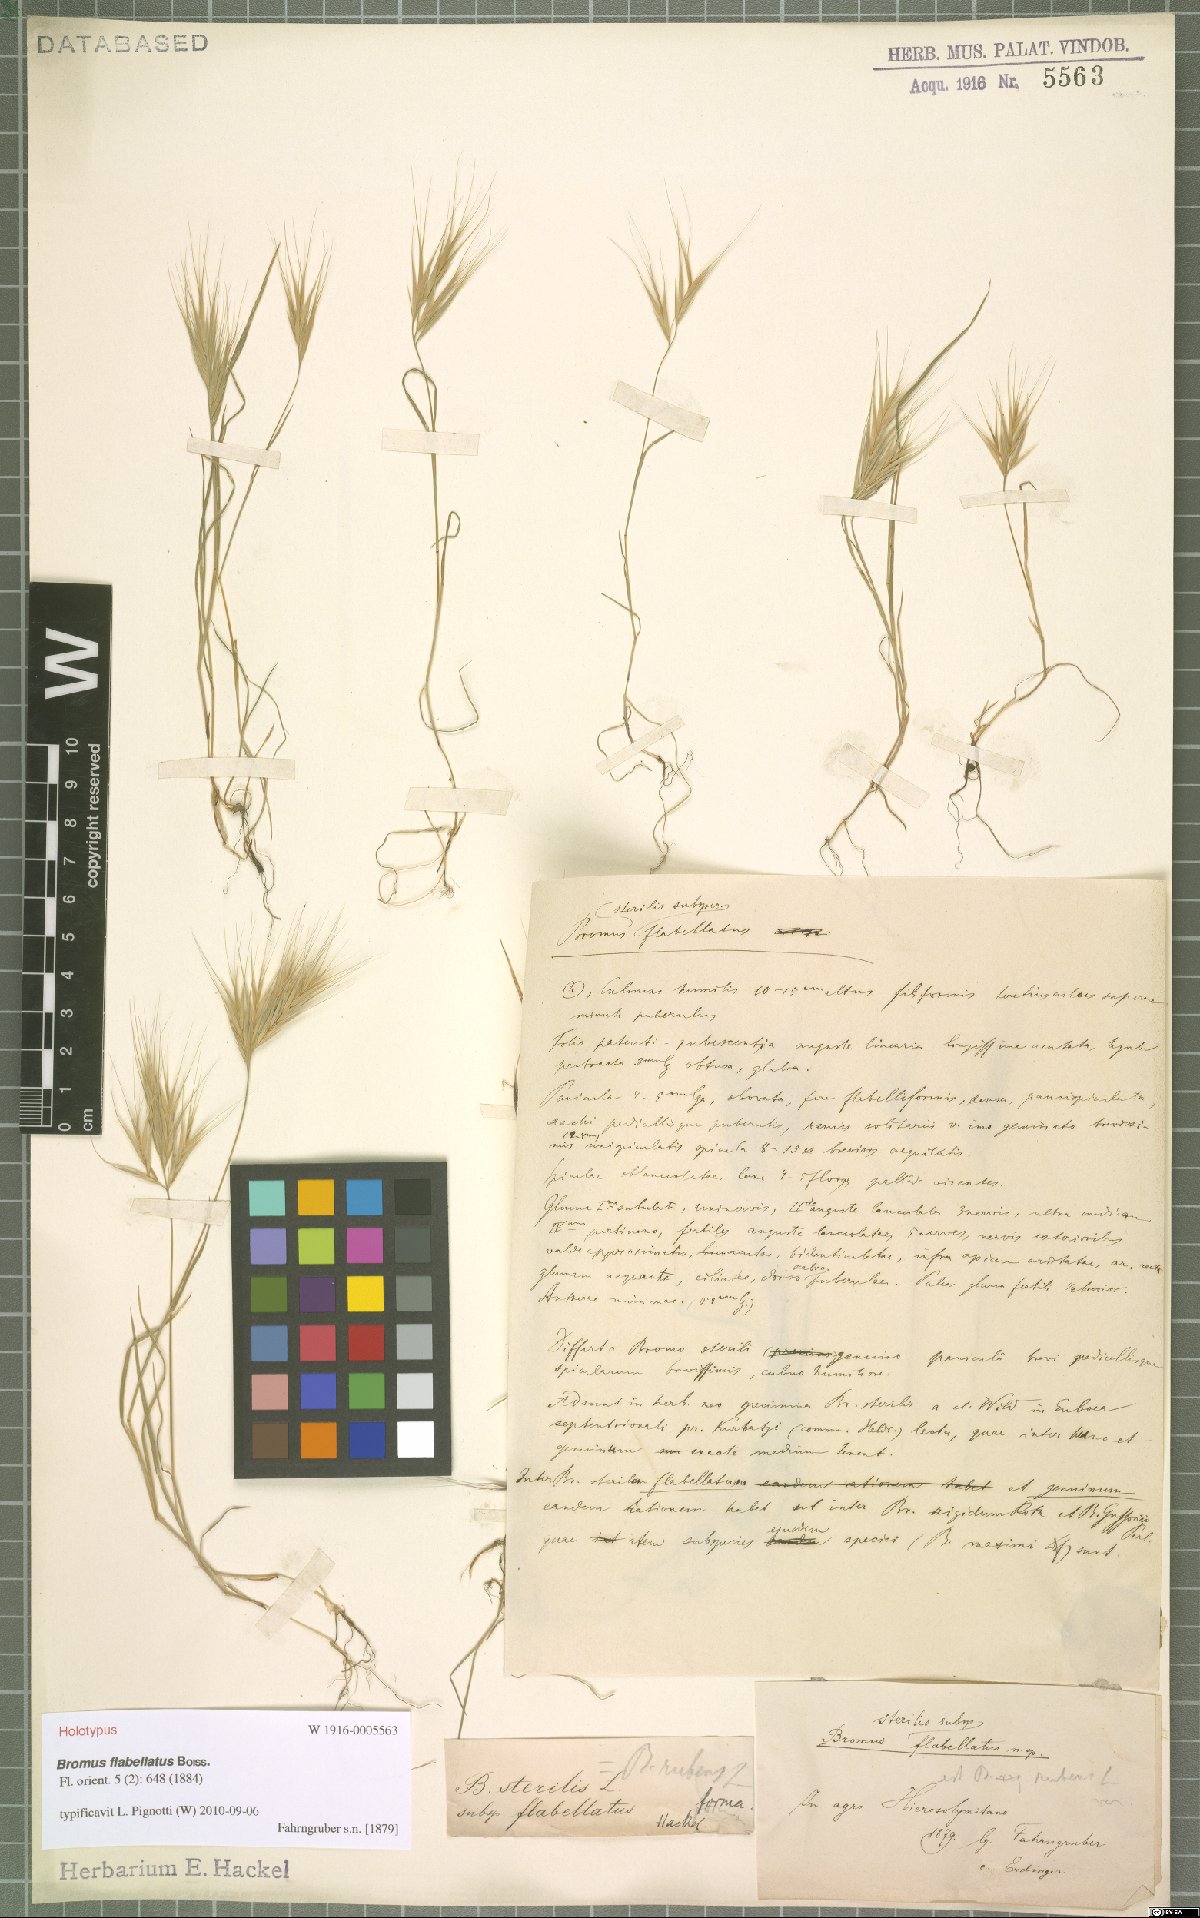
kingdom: Plantae
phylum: Tracheophyta
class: Liliopsida
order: Poales
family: Poaceae
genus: Bromus
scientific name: Bromus fasciculatus
